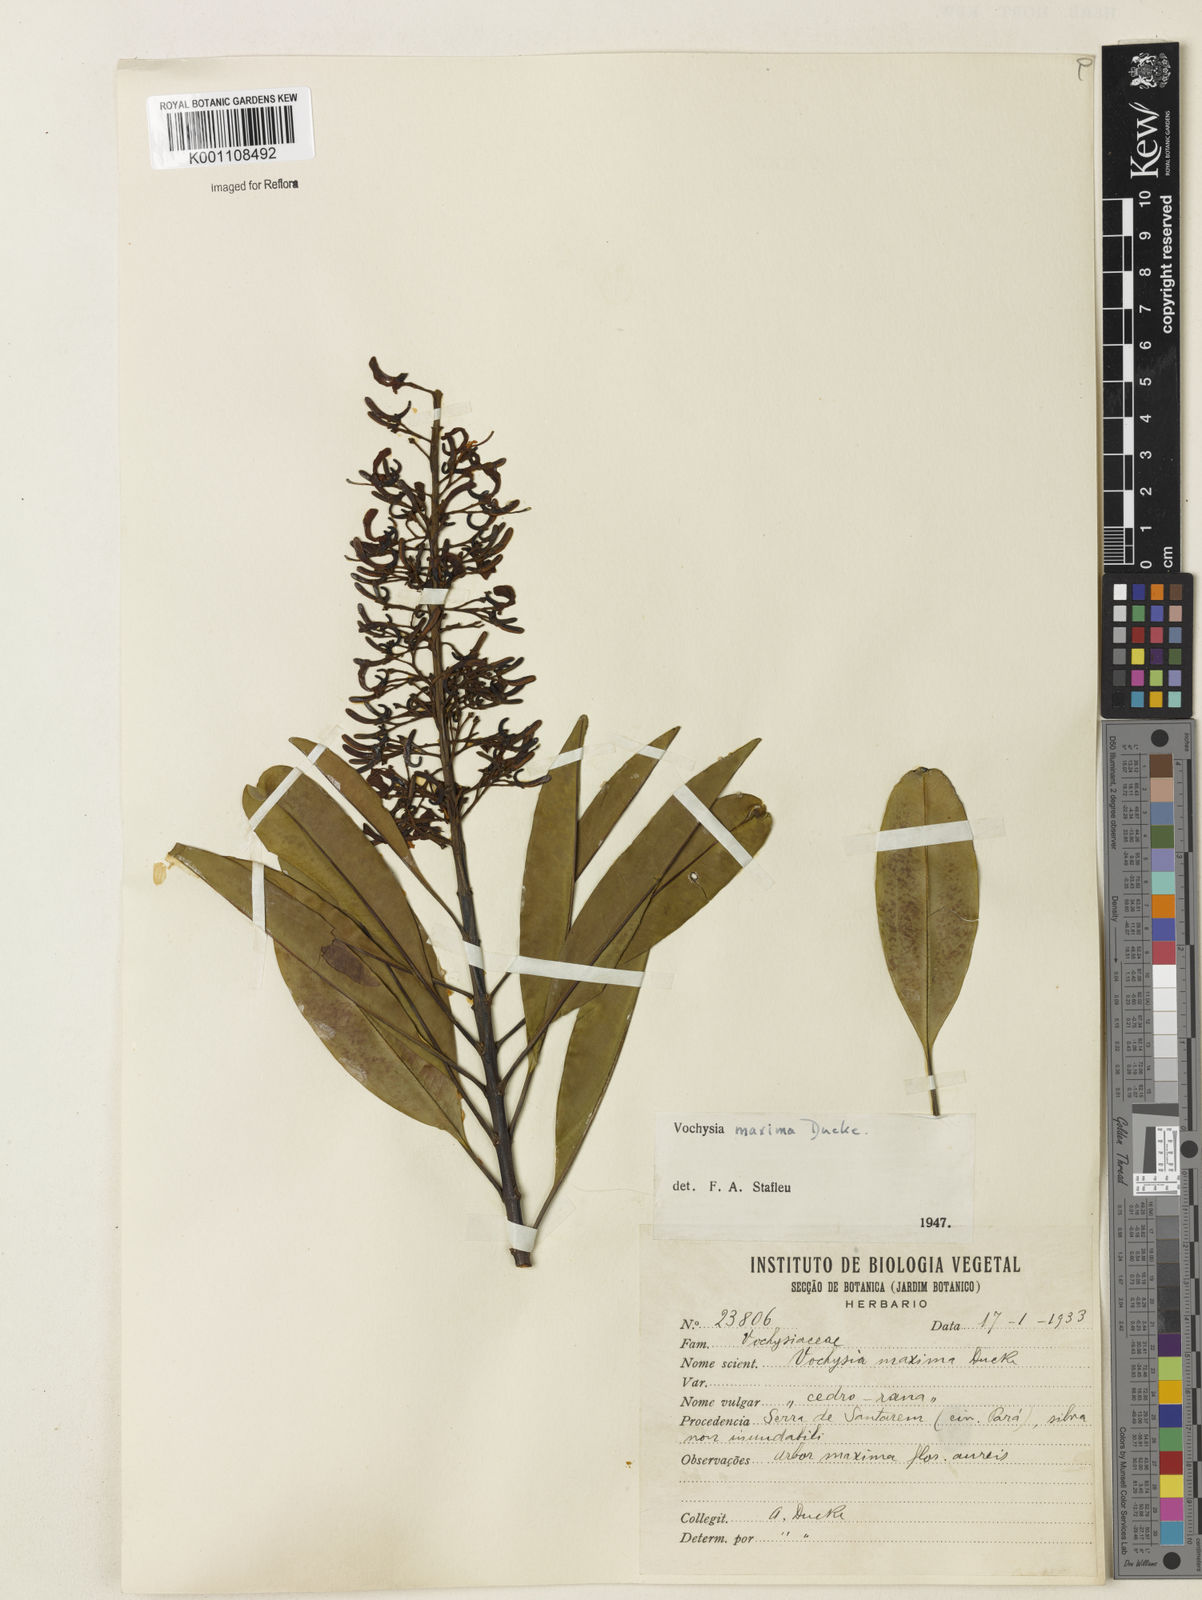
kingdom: Plantae
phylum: Tracheophyta
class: Magnoliopsida
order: Myrtales
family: Vochysiaceae
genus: Vochysia
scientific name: Vochysia maxima
